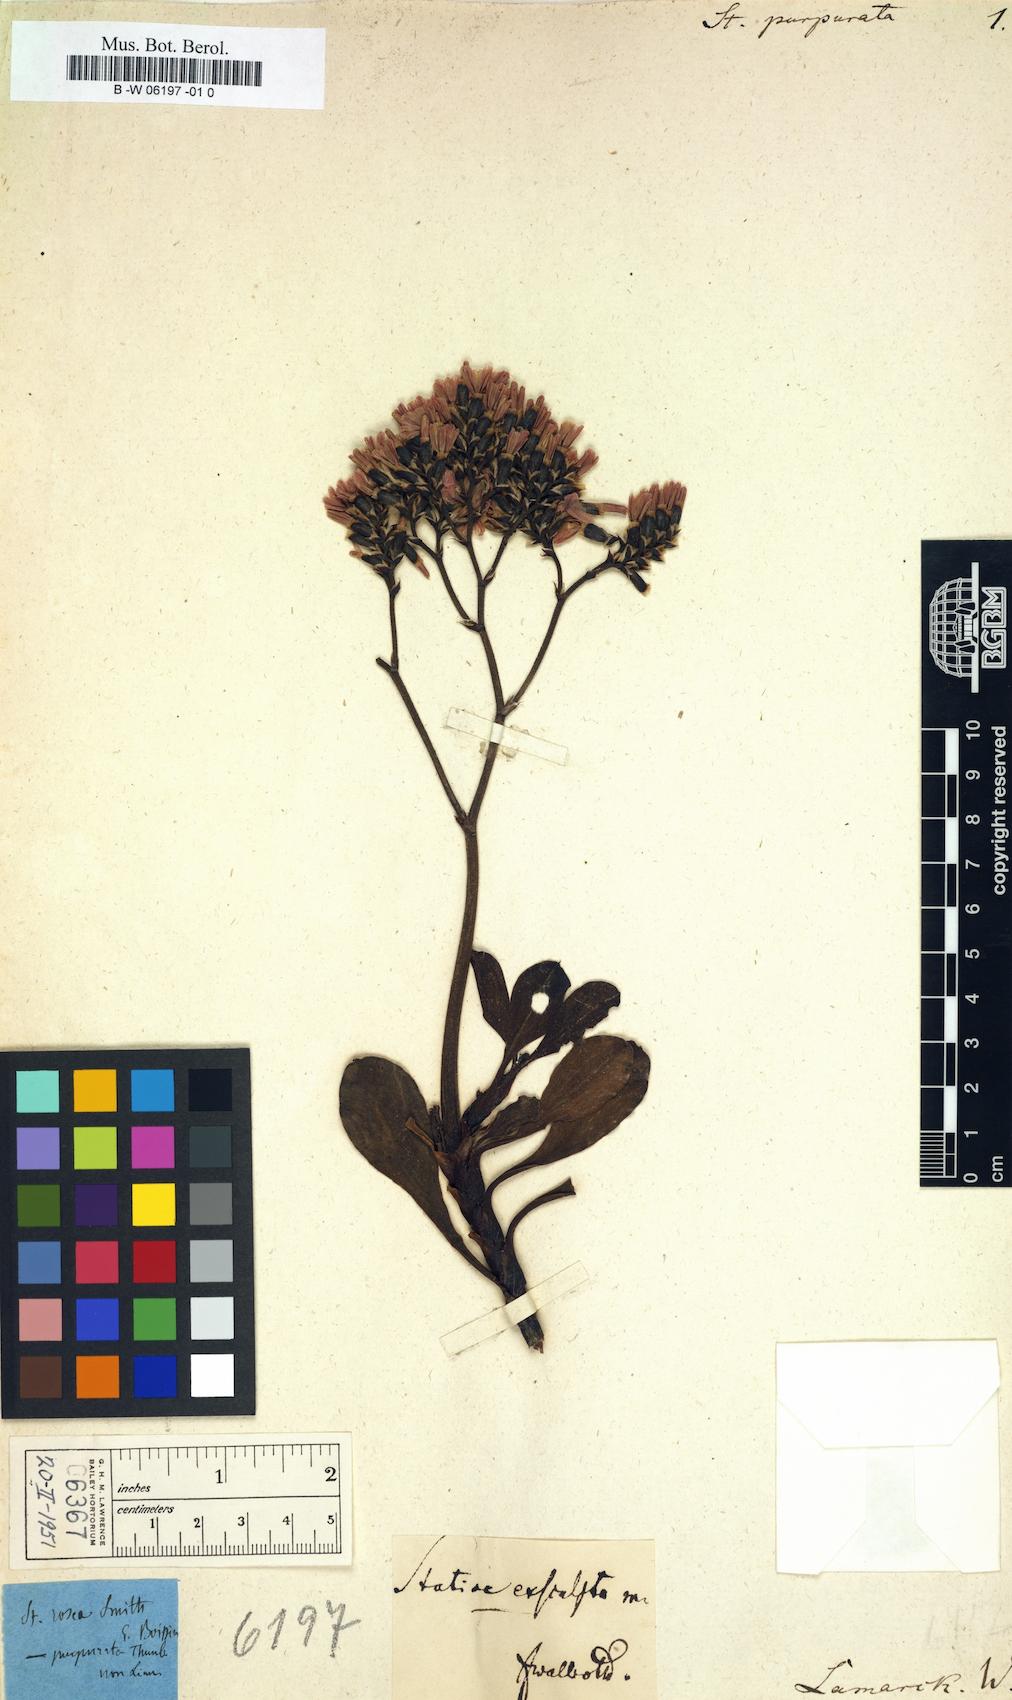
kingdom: Plantae
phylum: Tracheophyta
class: Magnoliopsida
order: Caryophyllales
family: Plumbaginaceae
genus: Limonium
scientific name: Limonium
